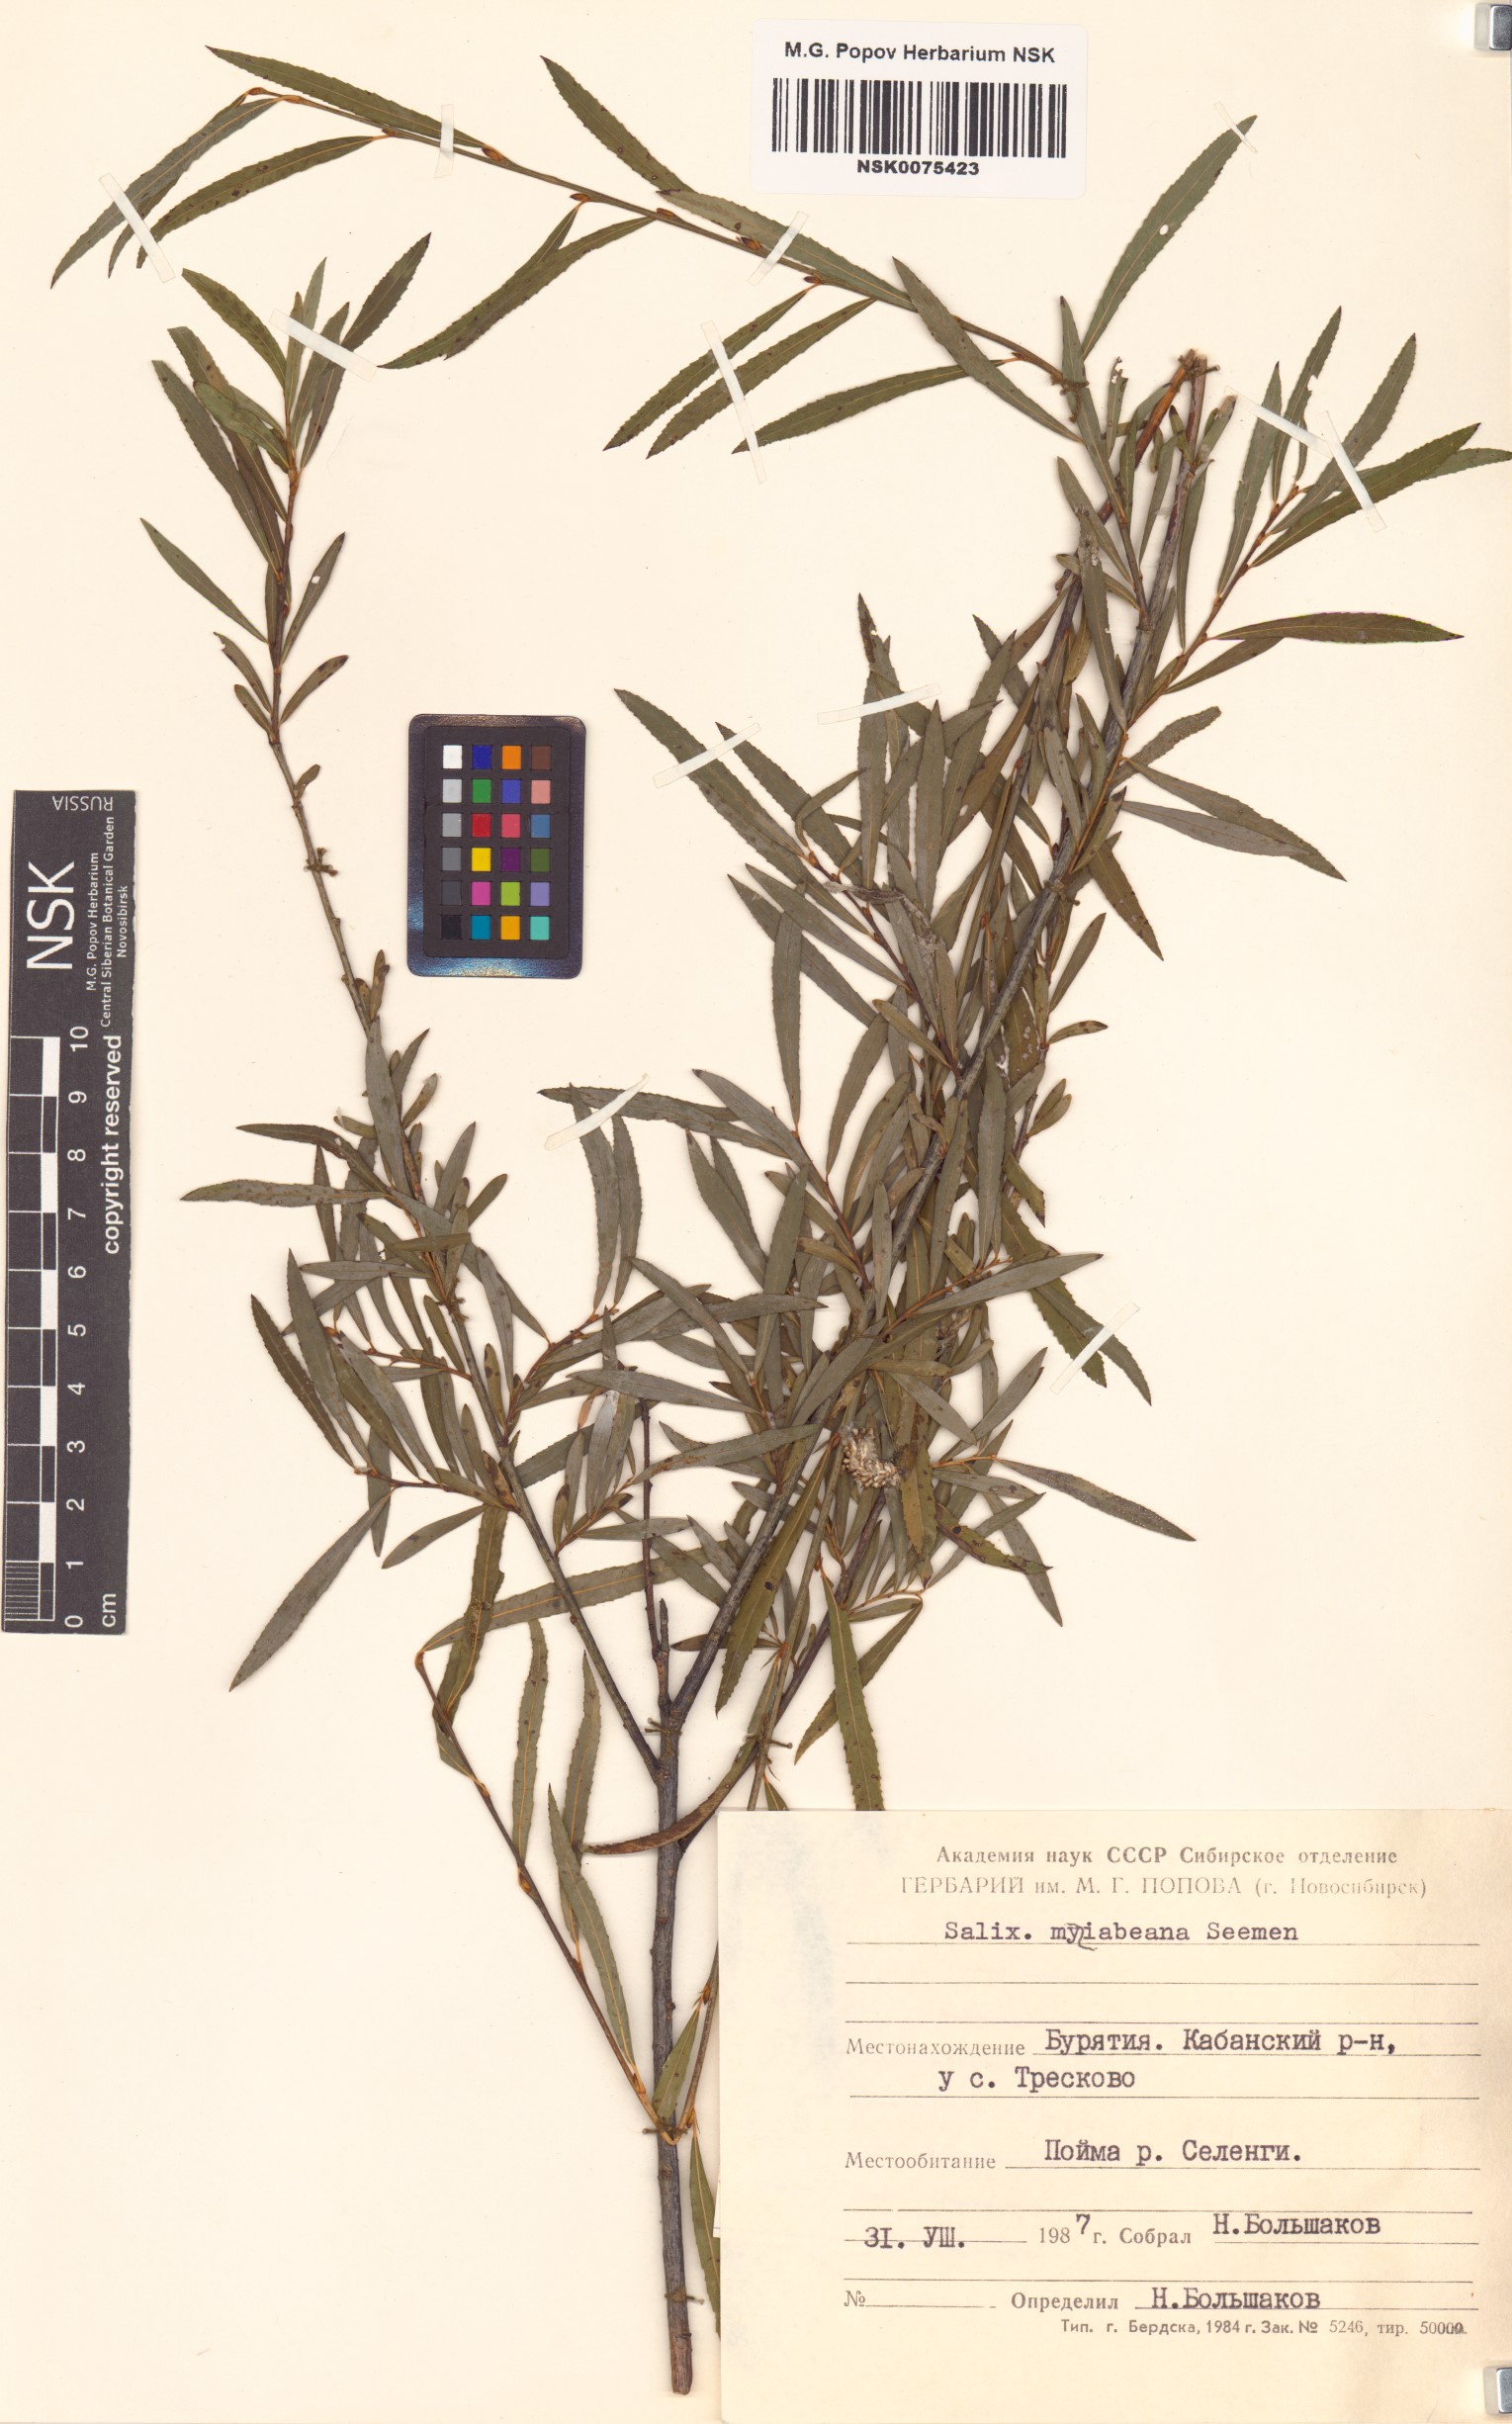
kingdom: Plantae
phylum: Tracheophyta
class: Magnoliopsida
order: Malpighiales
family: Salicaceae
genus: Salix
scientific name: Salix miyabeana
